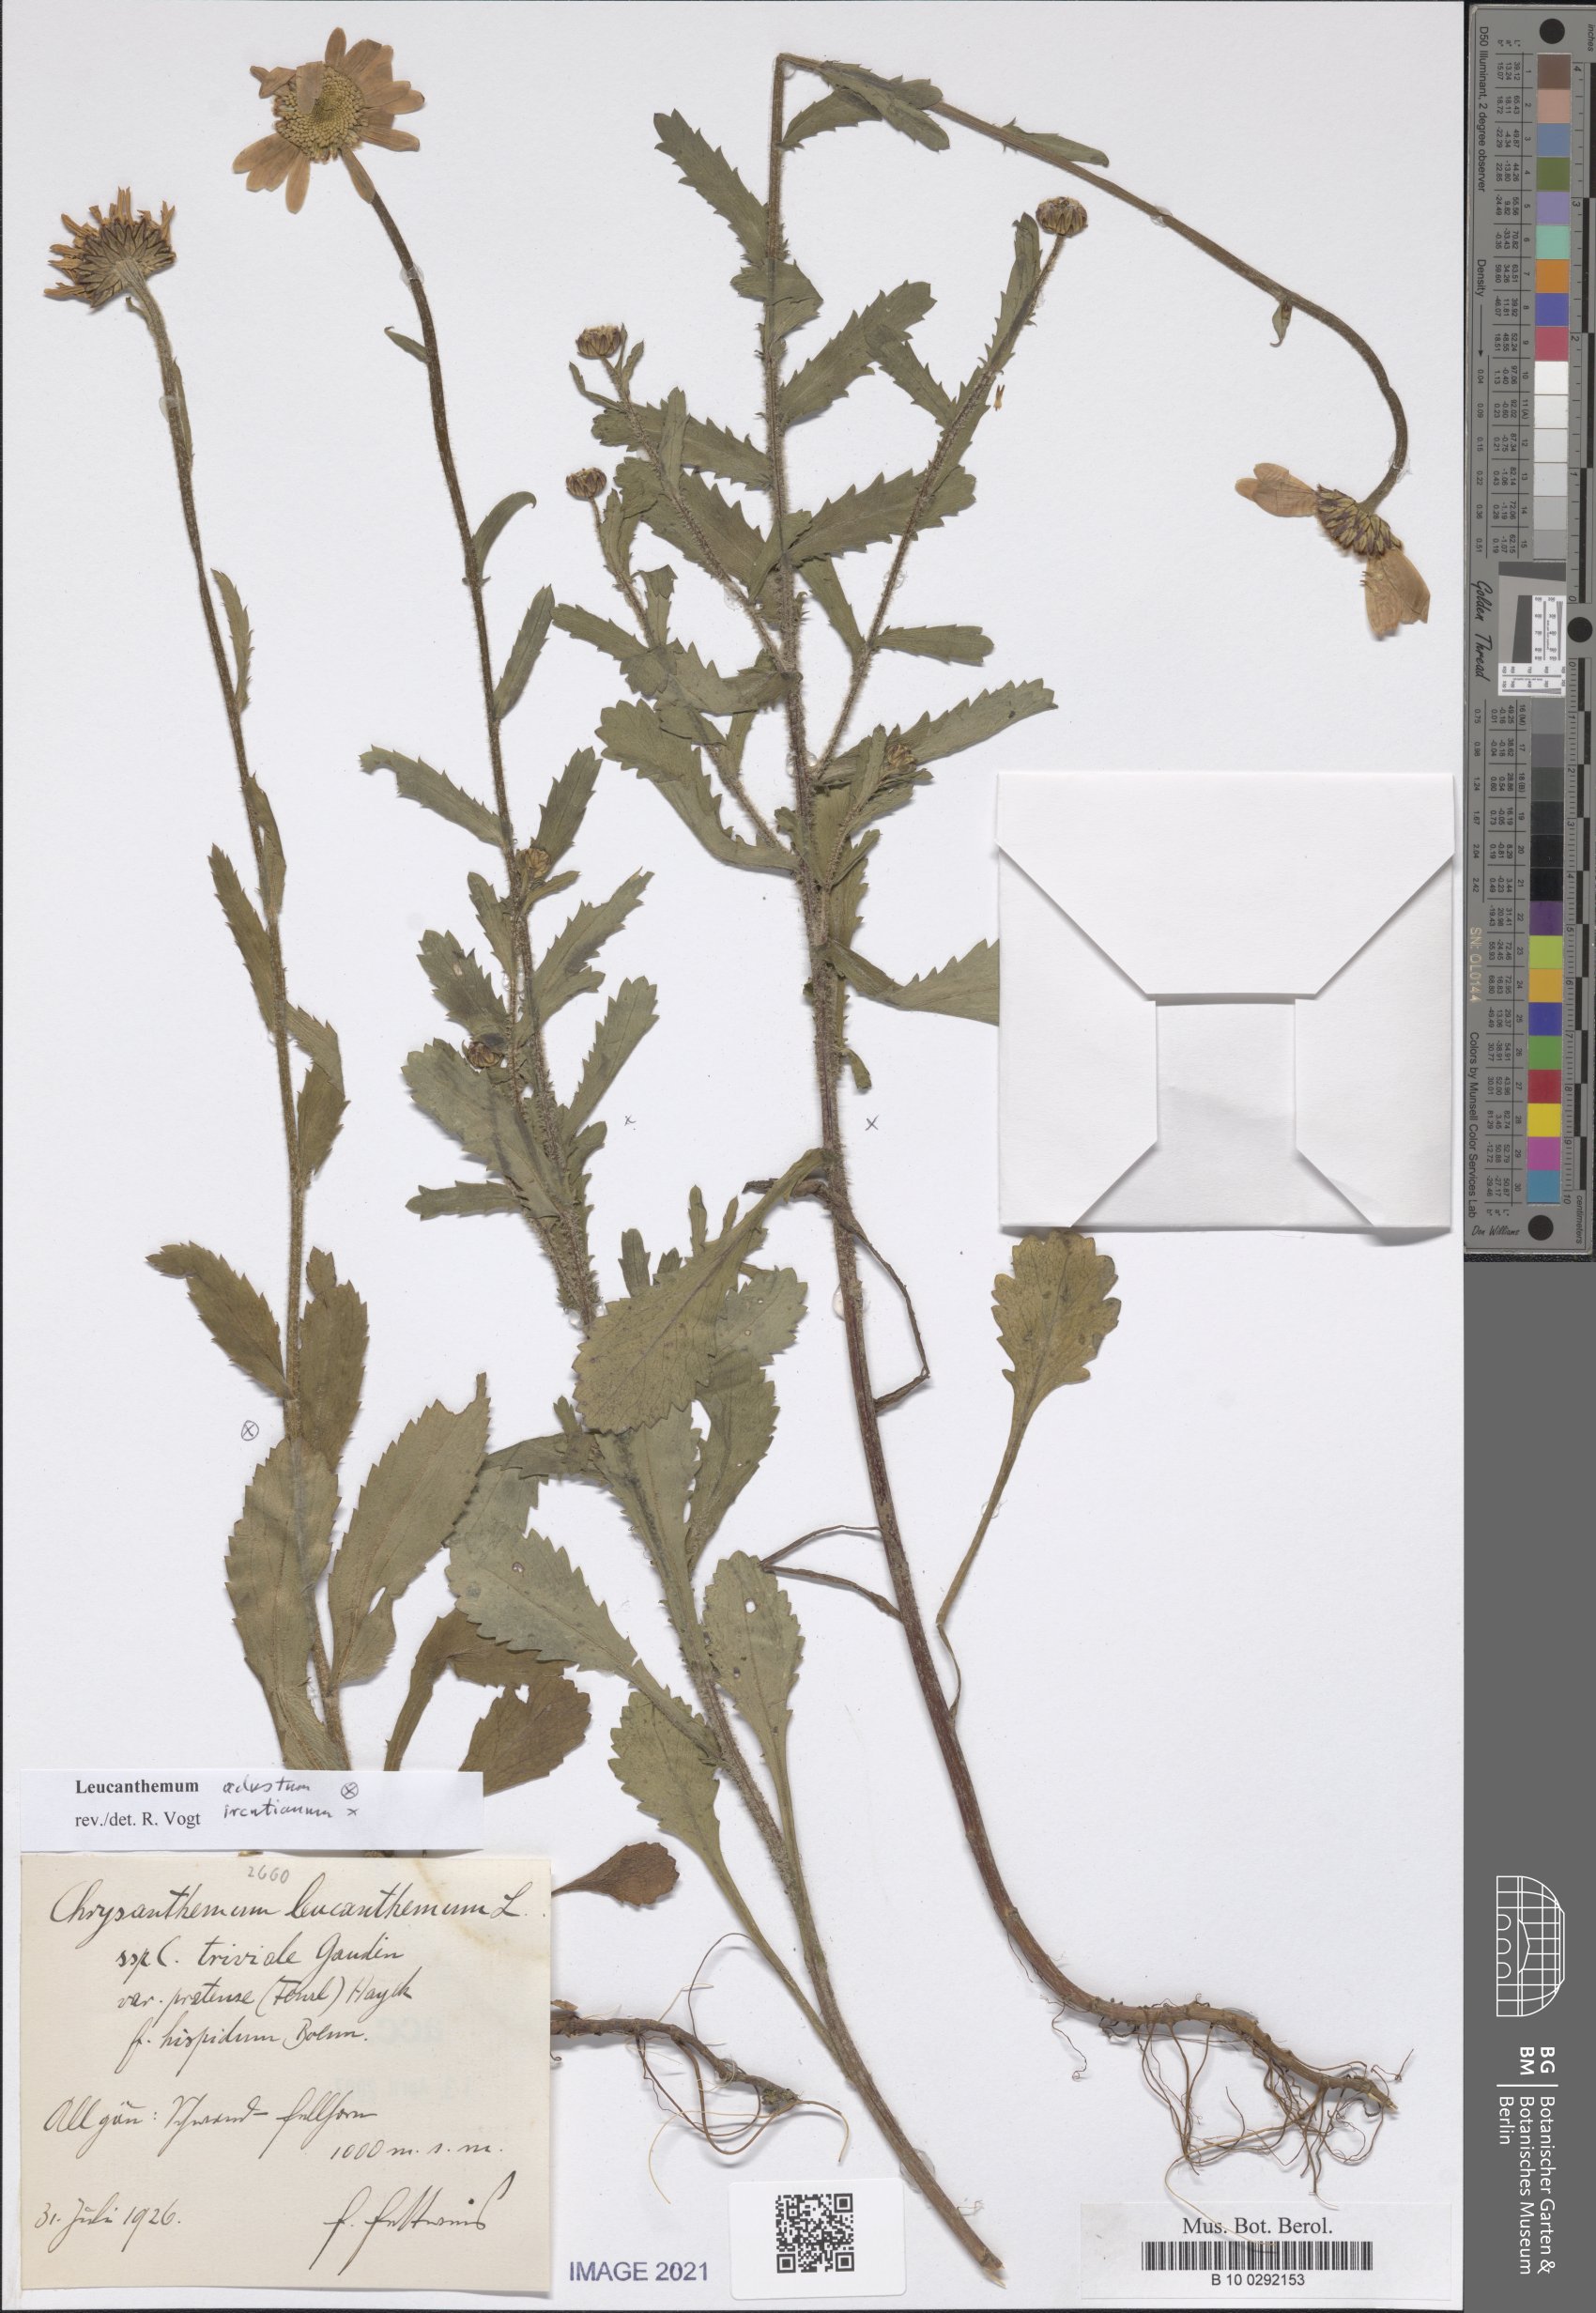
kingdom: Plantae
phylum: Tracheophyta
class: Magnoliopsida
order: Asterales
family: Asteraceae
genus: Leucanthemum
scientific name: Leucanthemum ircutianum
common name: Daisy
